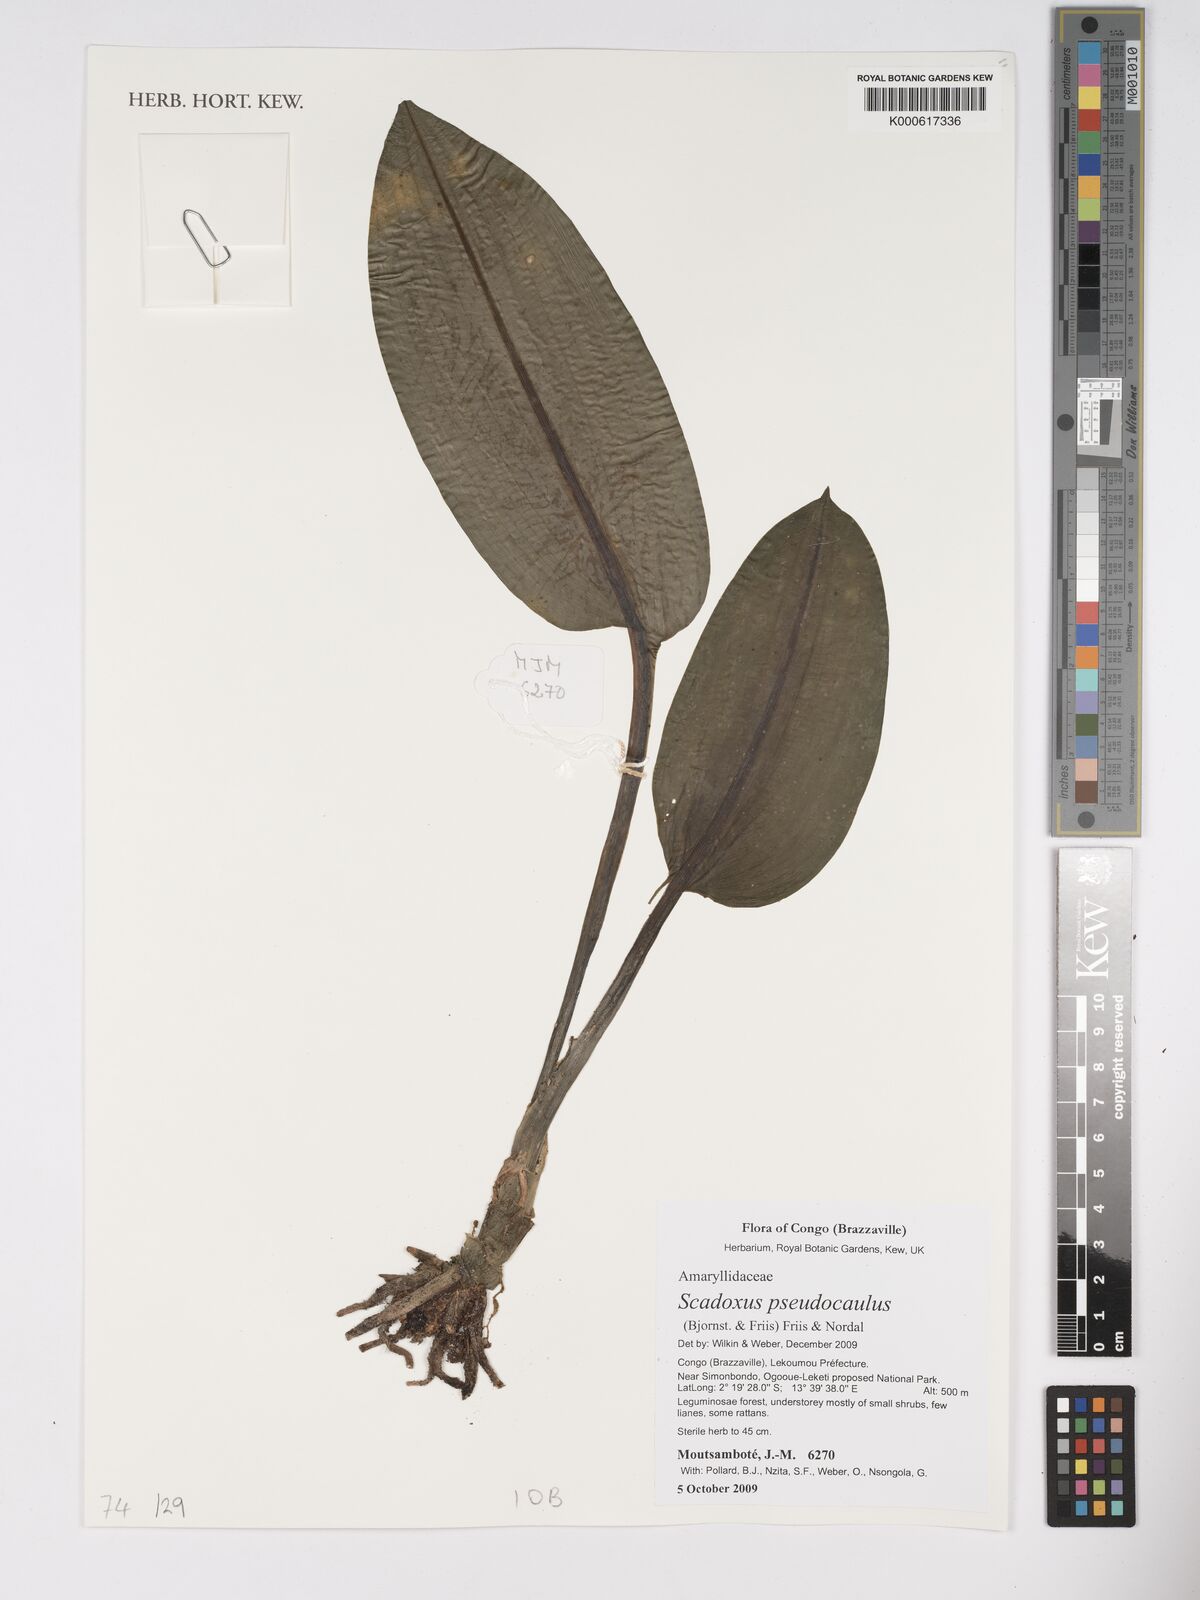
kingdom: Plantae
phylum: Tracheophyta
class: Liliopsida
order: Asparagales
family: Amaryllidaceae
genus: Scadoxus
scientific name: Scadoxus pseudocaulus
